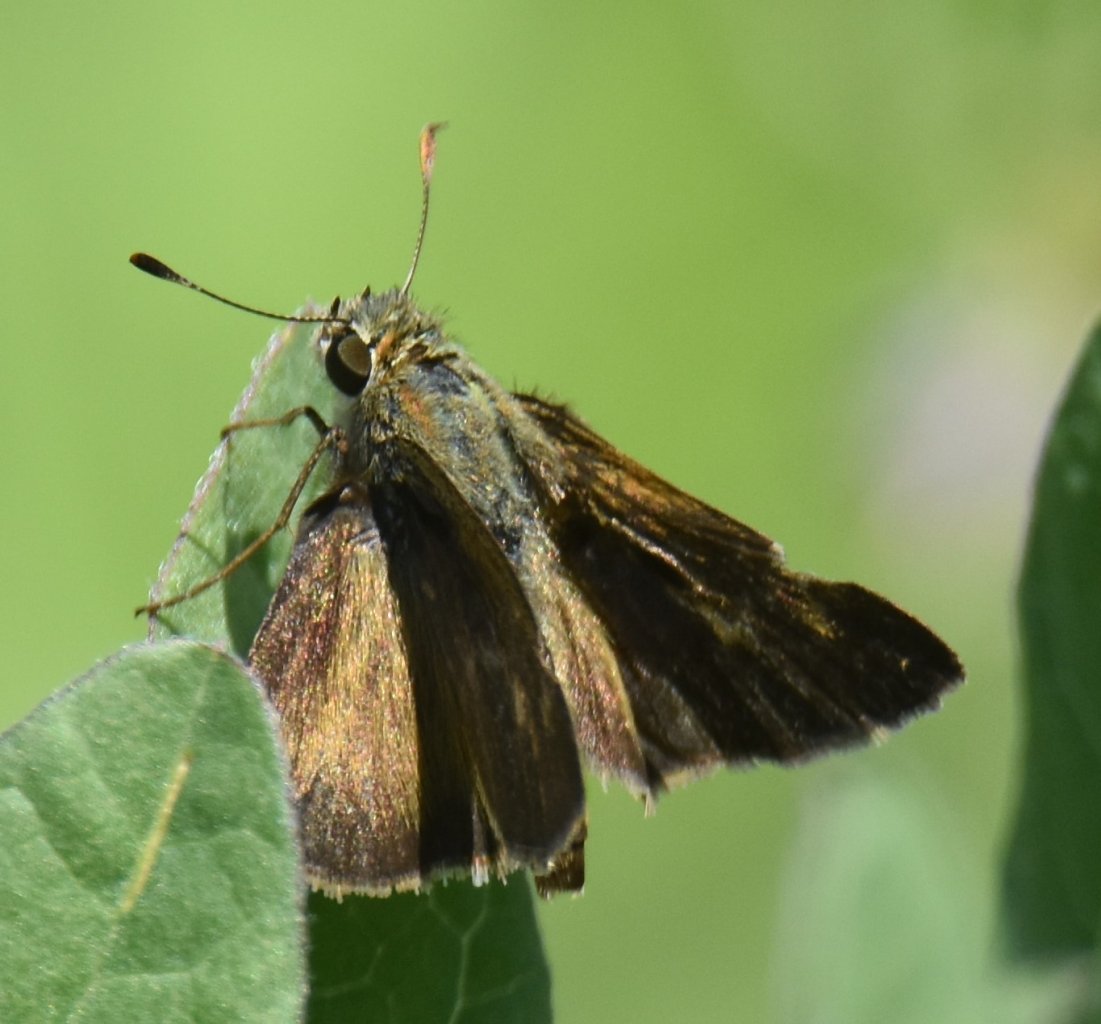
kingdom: Animalia
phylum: Arthropoda
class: Insecta
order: Lepidoptera
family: Hesperiidae
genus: Polites
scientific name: Polites egeremet
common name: Northern Broken-Dash
